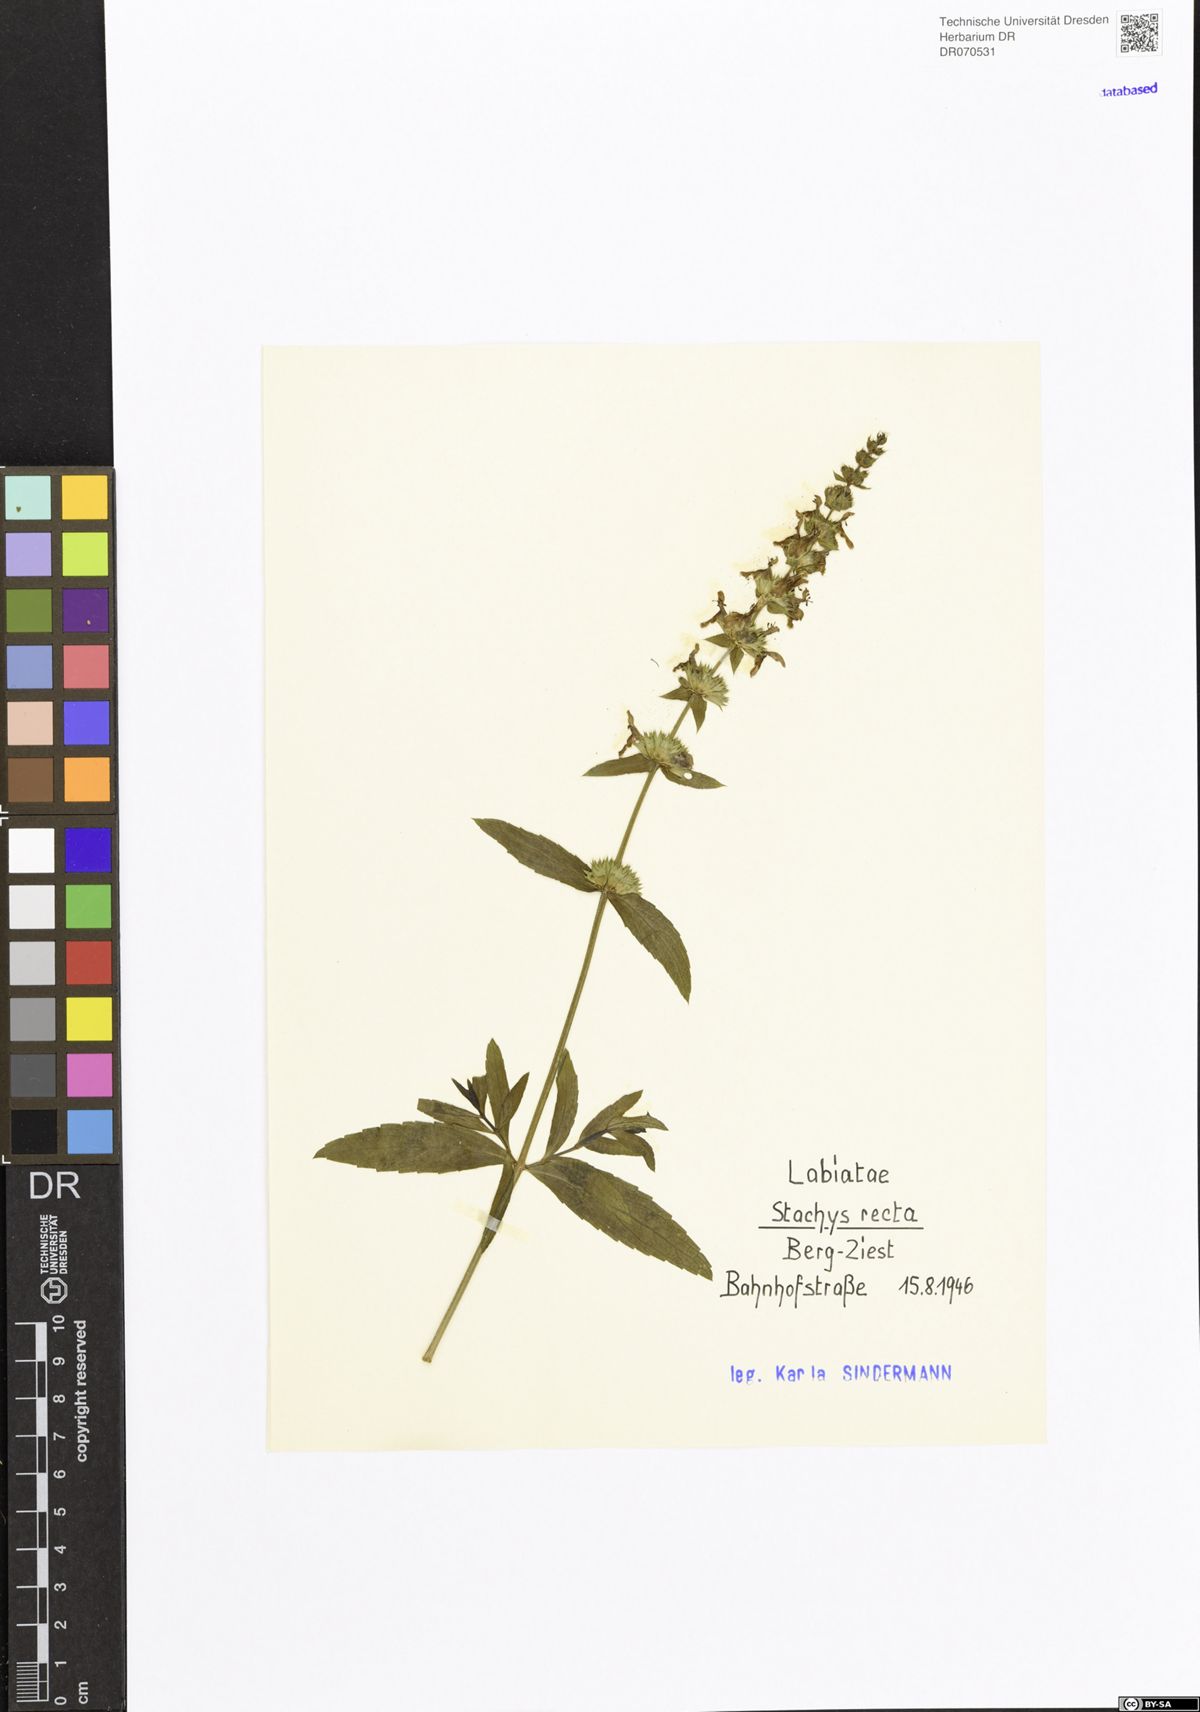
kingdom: Plantae
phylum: Tracheophyta
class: Magnoliopsida
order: Lamiales
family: Lamiaceae
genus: Stachys
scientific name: Stachys recta
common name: Perennial yellow-woundwort
